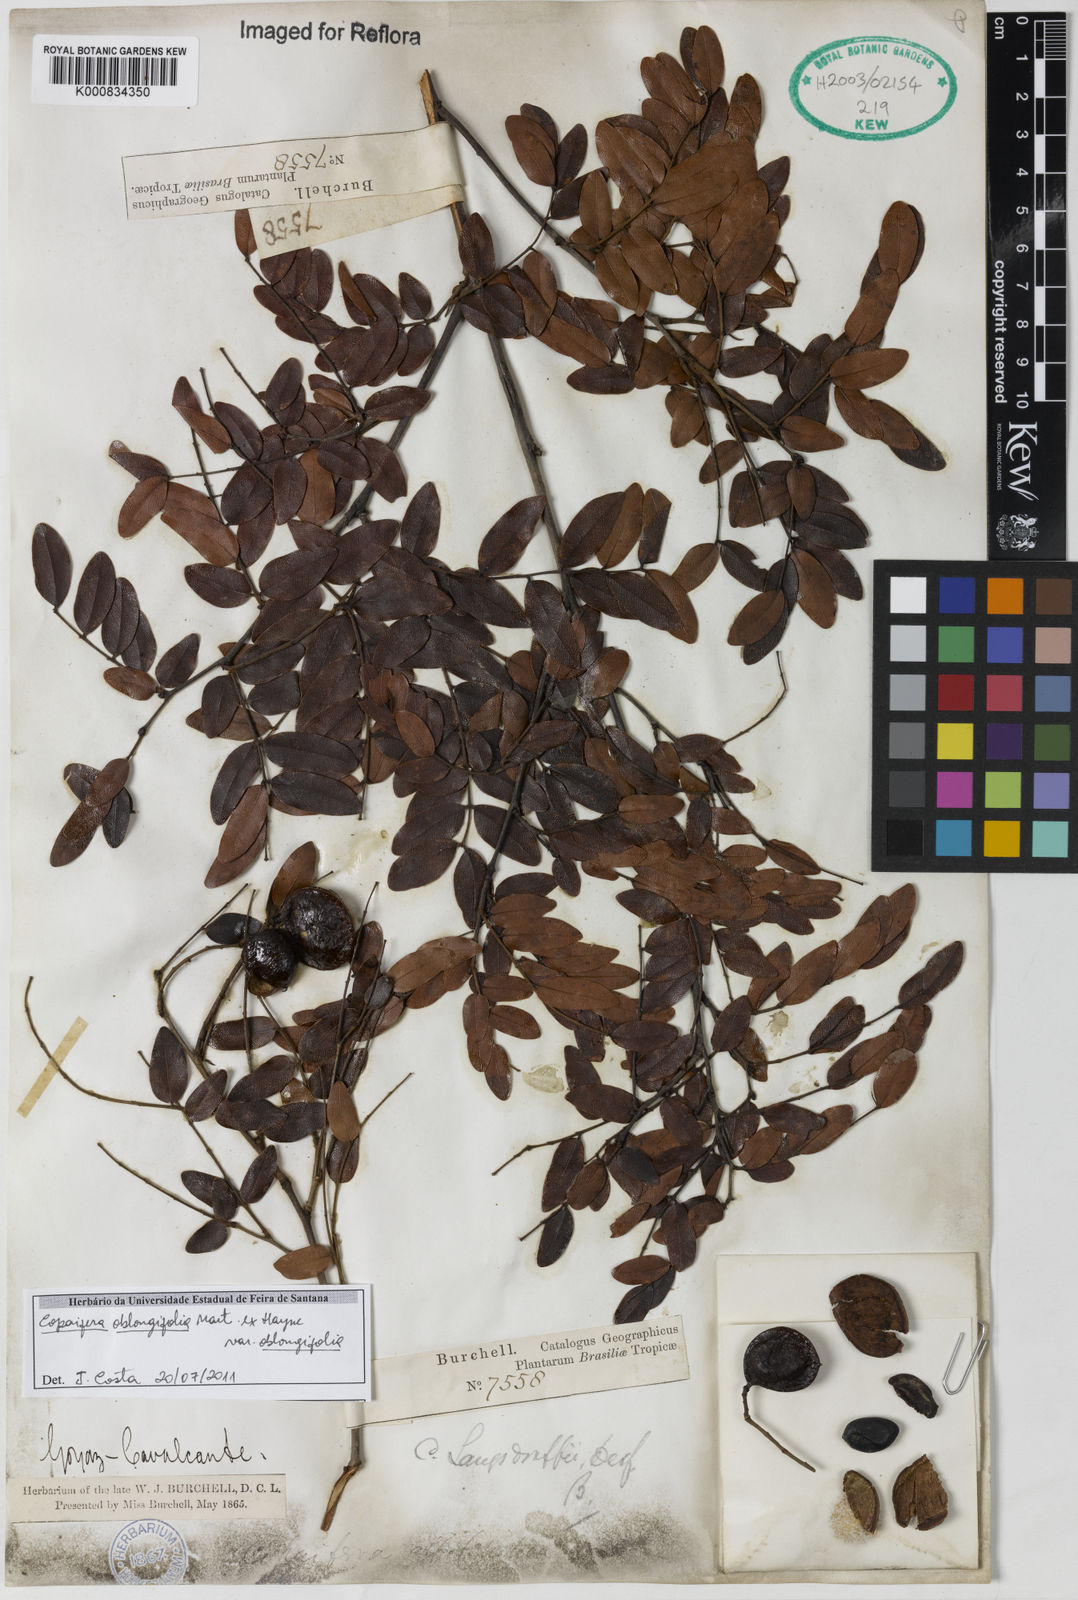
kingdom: Plantae
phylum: Tracheophyta
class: Magnoliopsida
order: Fabales
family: Fabaceae
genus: Copaifera
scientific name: Copaifera
